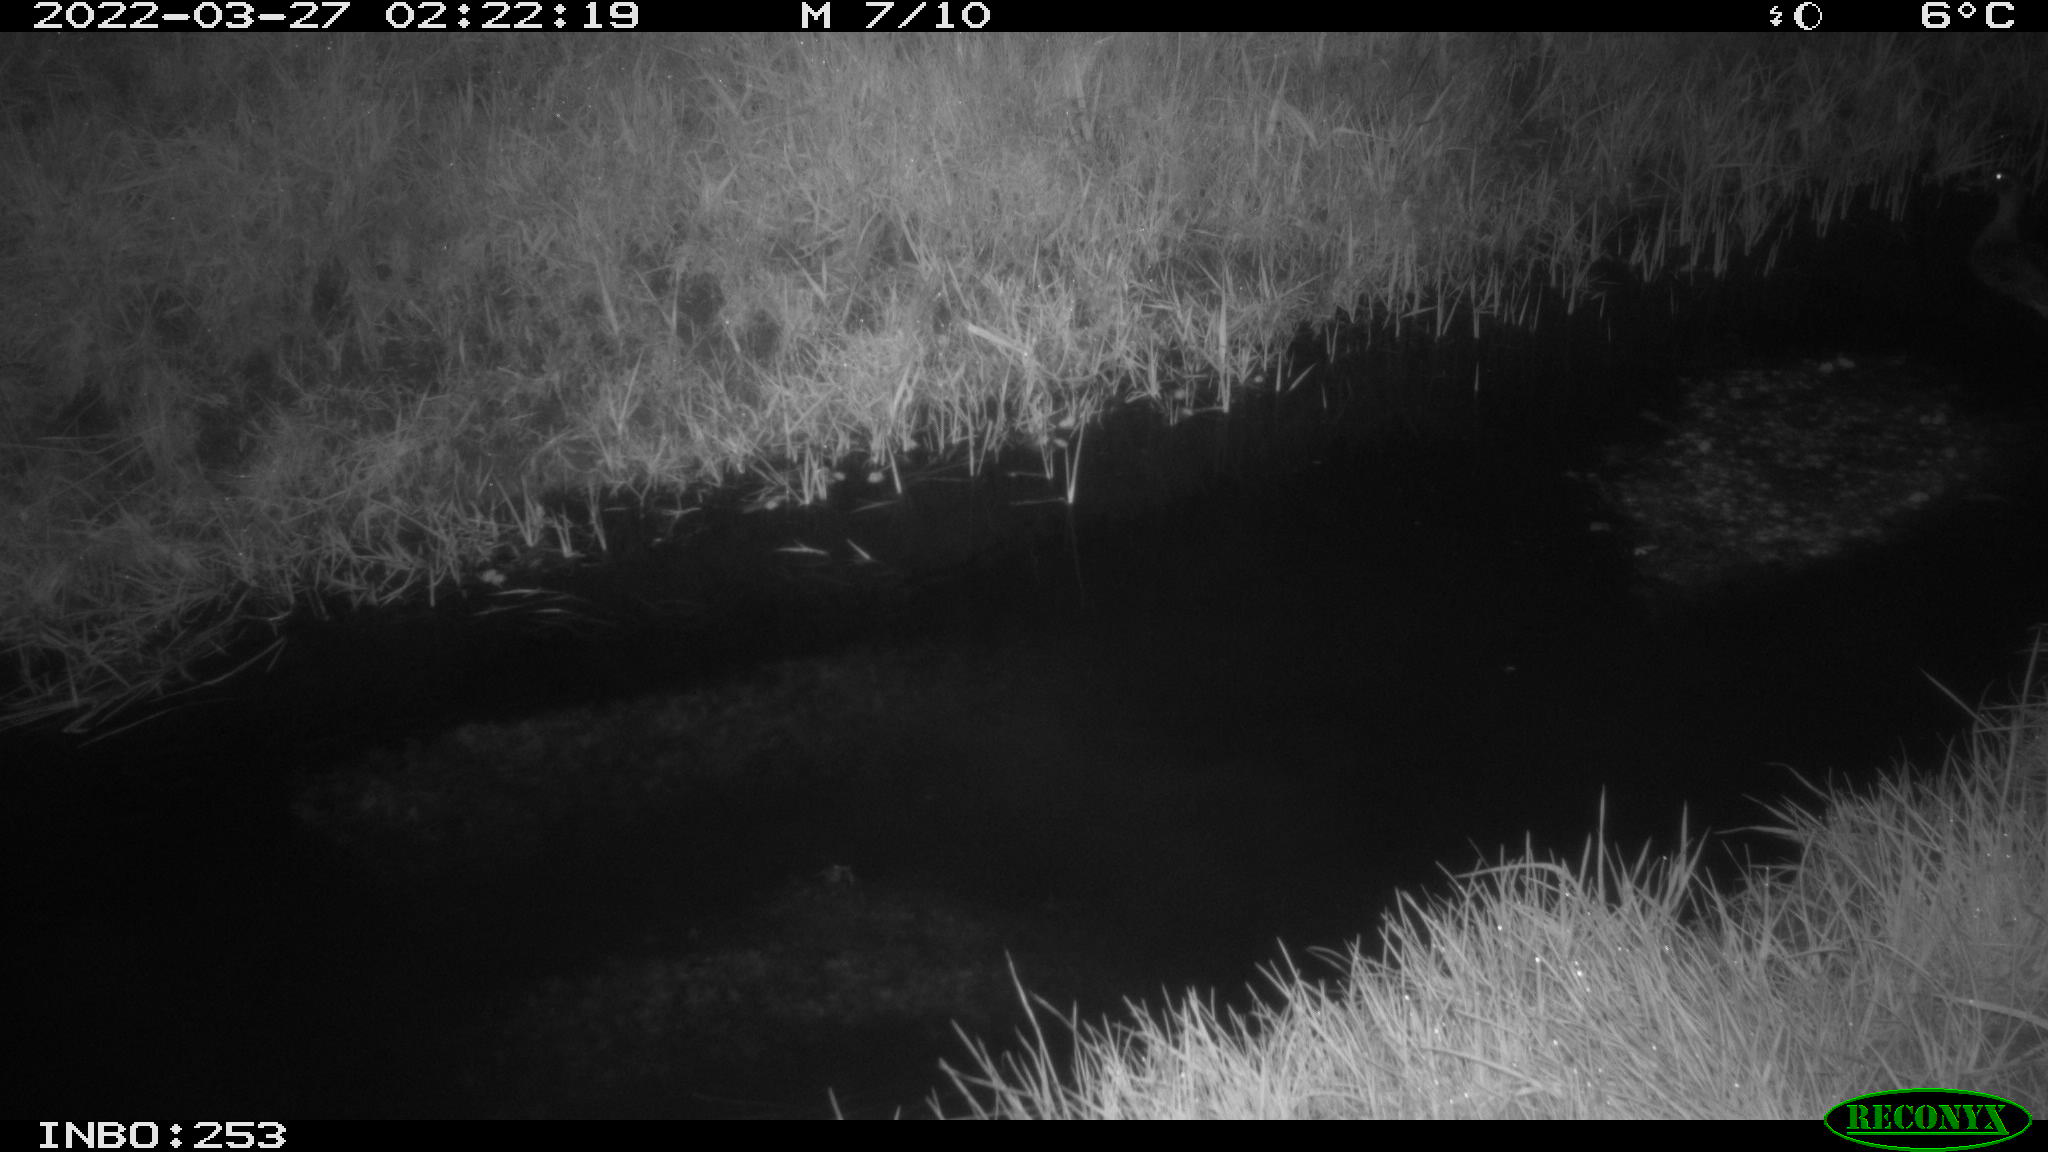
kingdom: Animalia
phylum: Chordata
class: Aves
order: Anseriformes
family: Anatidae
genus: Anas
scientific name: Anas platyrhynchos
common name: Mallard
